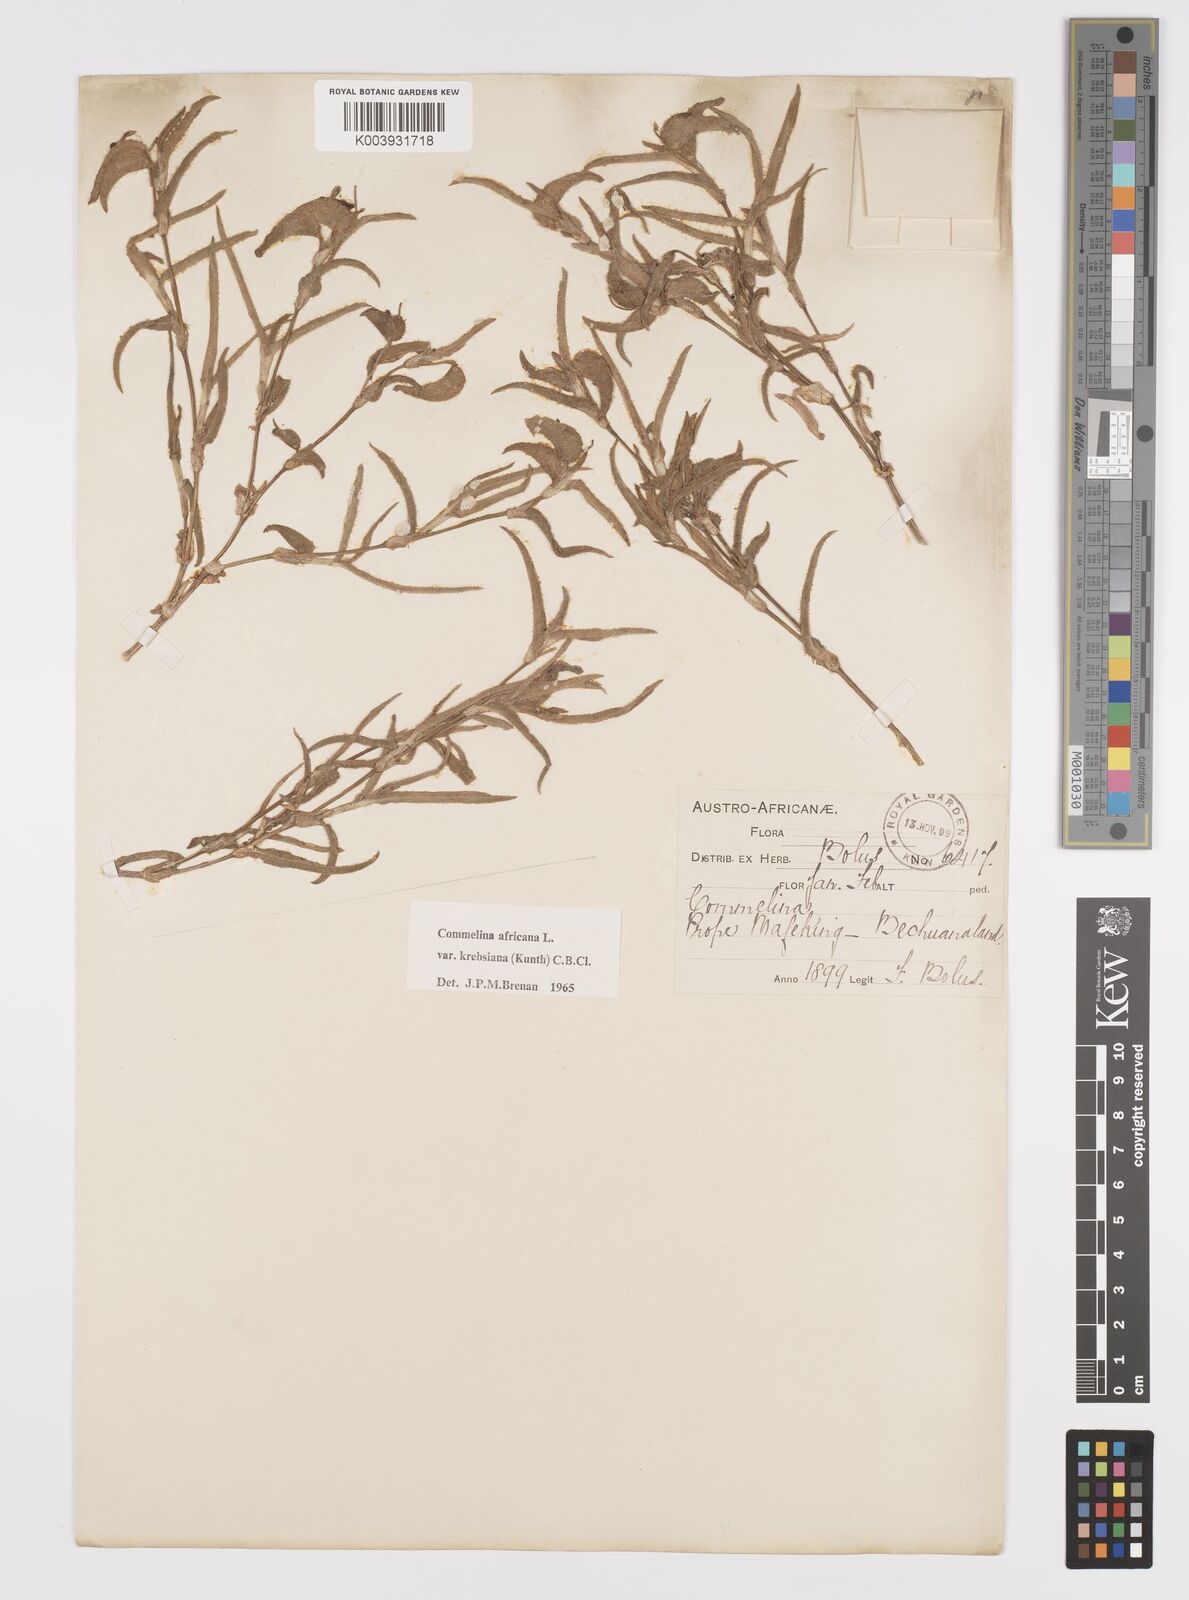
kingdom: Plantae
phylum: Tracheophyta
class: Liliopsida
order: Commelinales
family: Commelinaceae
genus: Commelina
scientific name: Commelina africana
